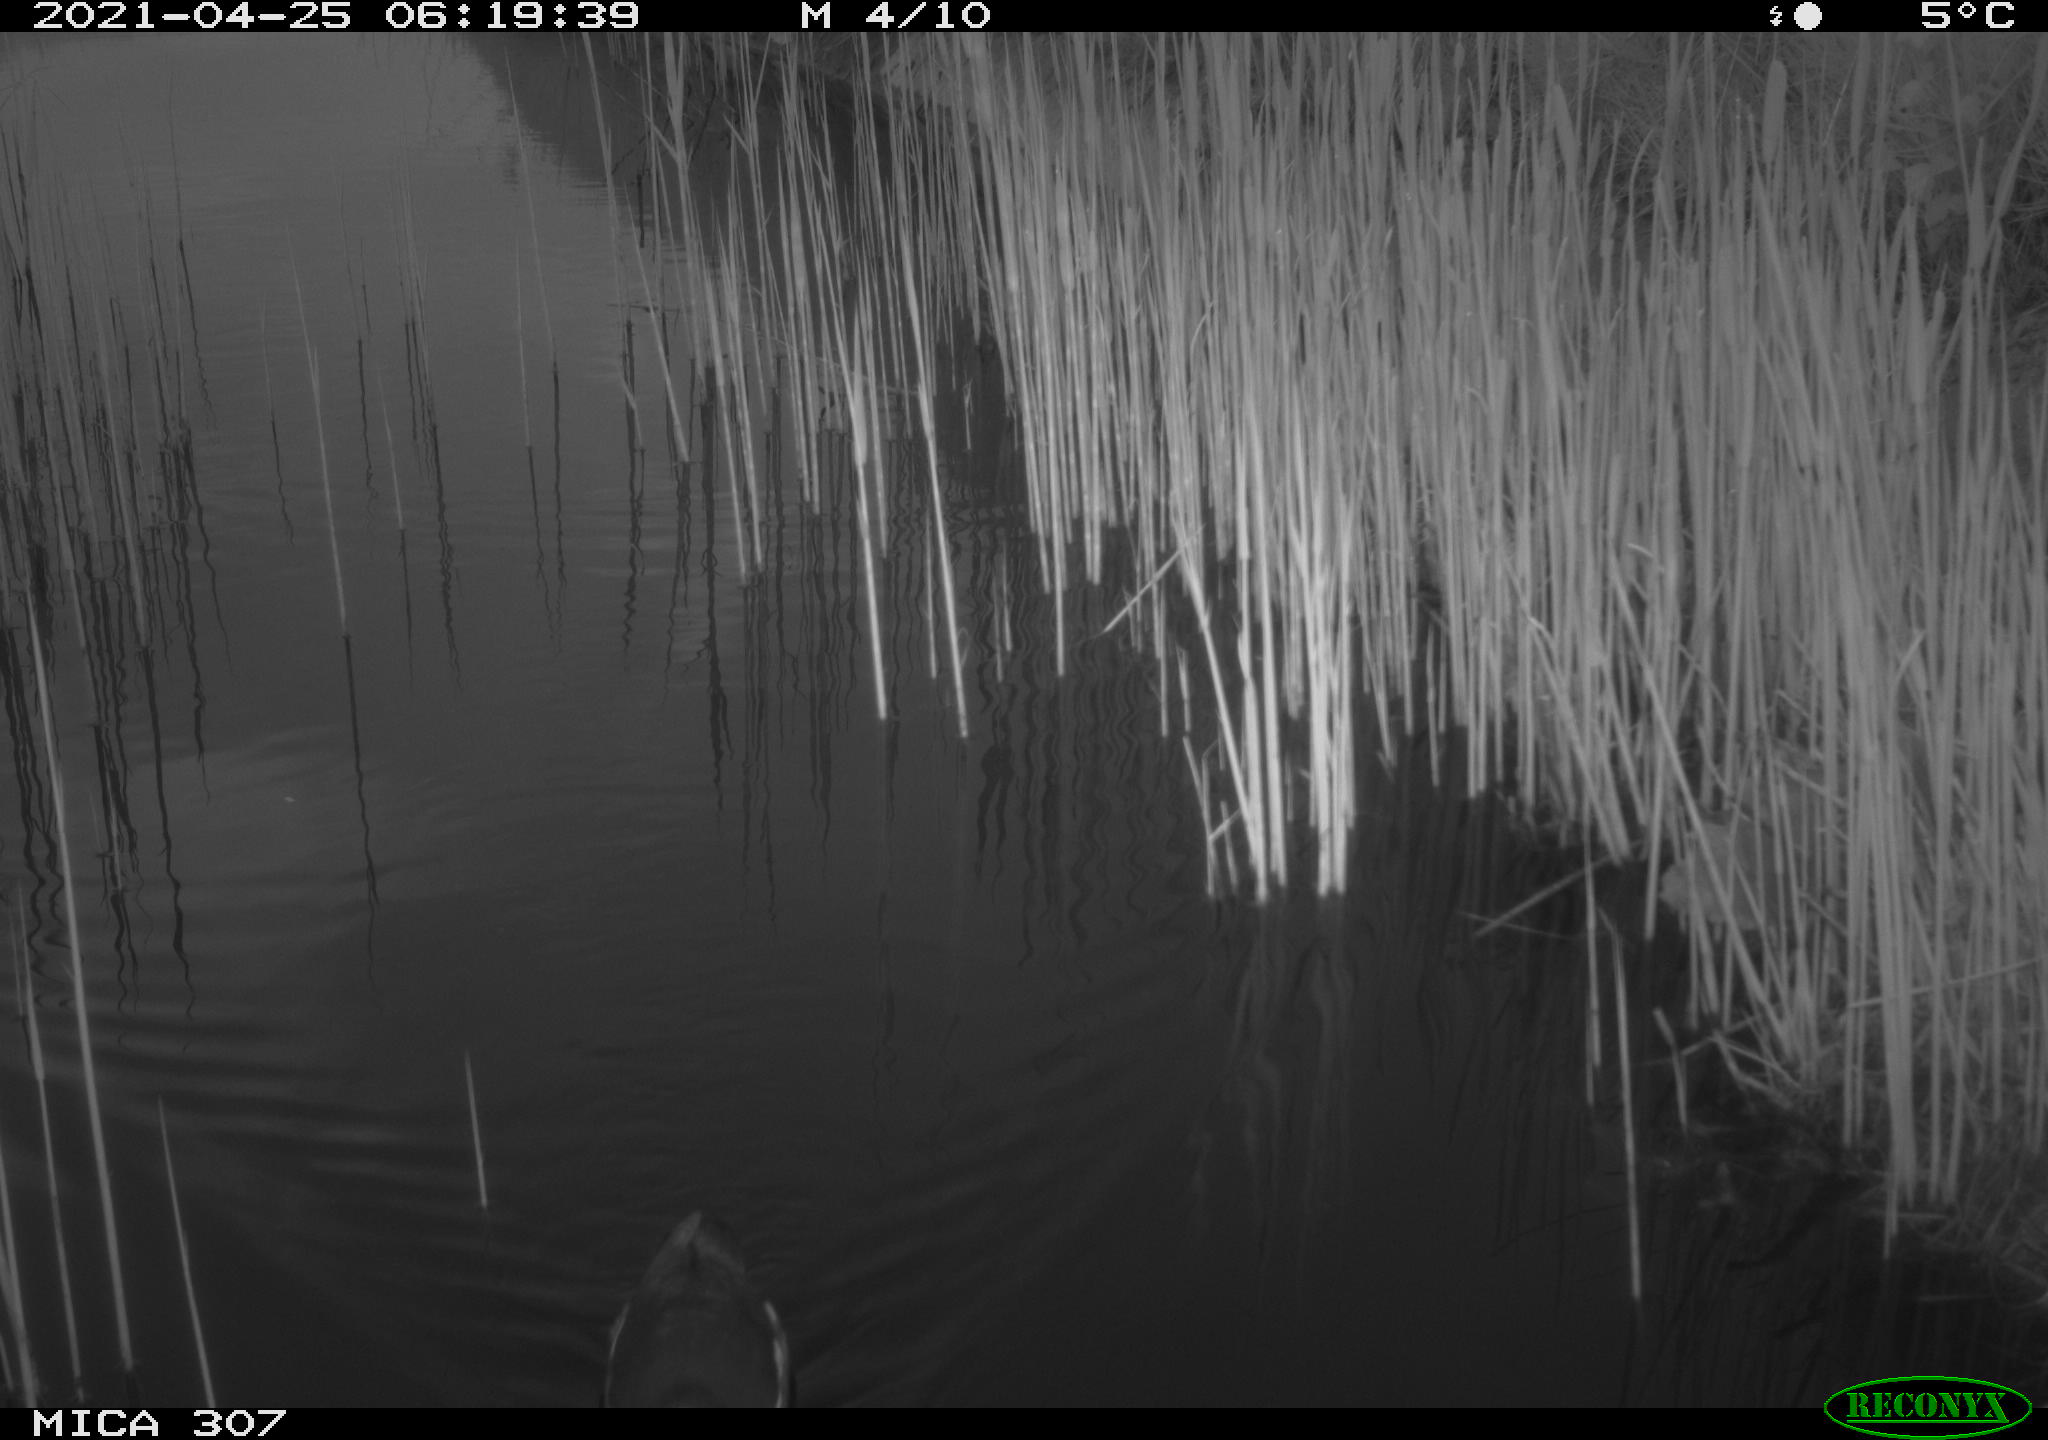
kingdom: Animalia
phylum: Chordata
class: Aves
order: Gruiformes
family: Rallidae
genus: Gallinula
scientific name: Gallinula chloropus
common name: Common moorhen
